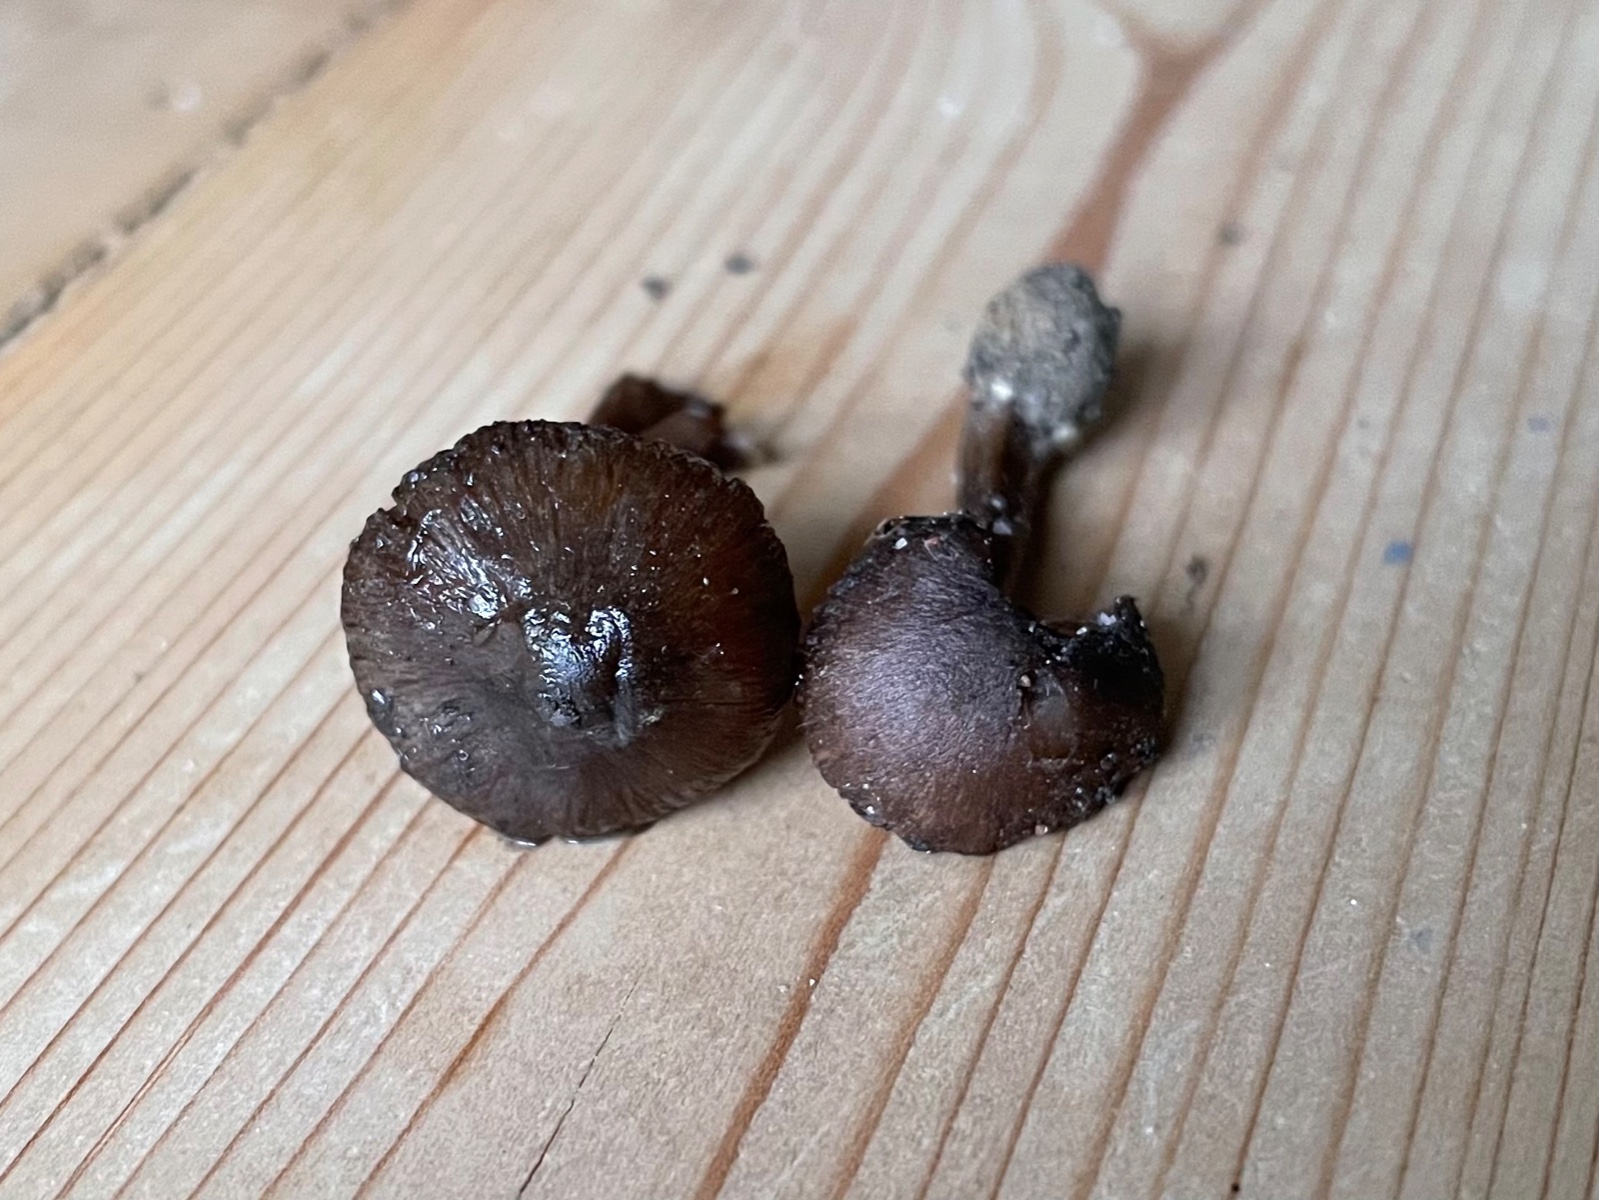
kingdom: Fungi
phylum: Basidiomycota
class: Agaricomycetes
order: Agaricales
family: Inocybaceae
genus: Inocybe
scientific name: Inocybe
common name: trævlhat
